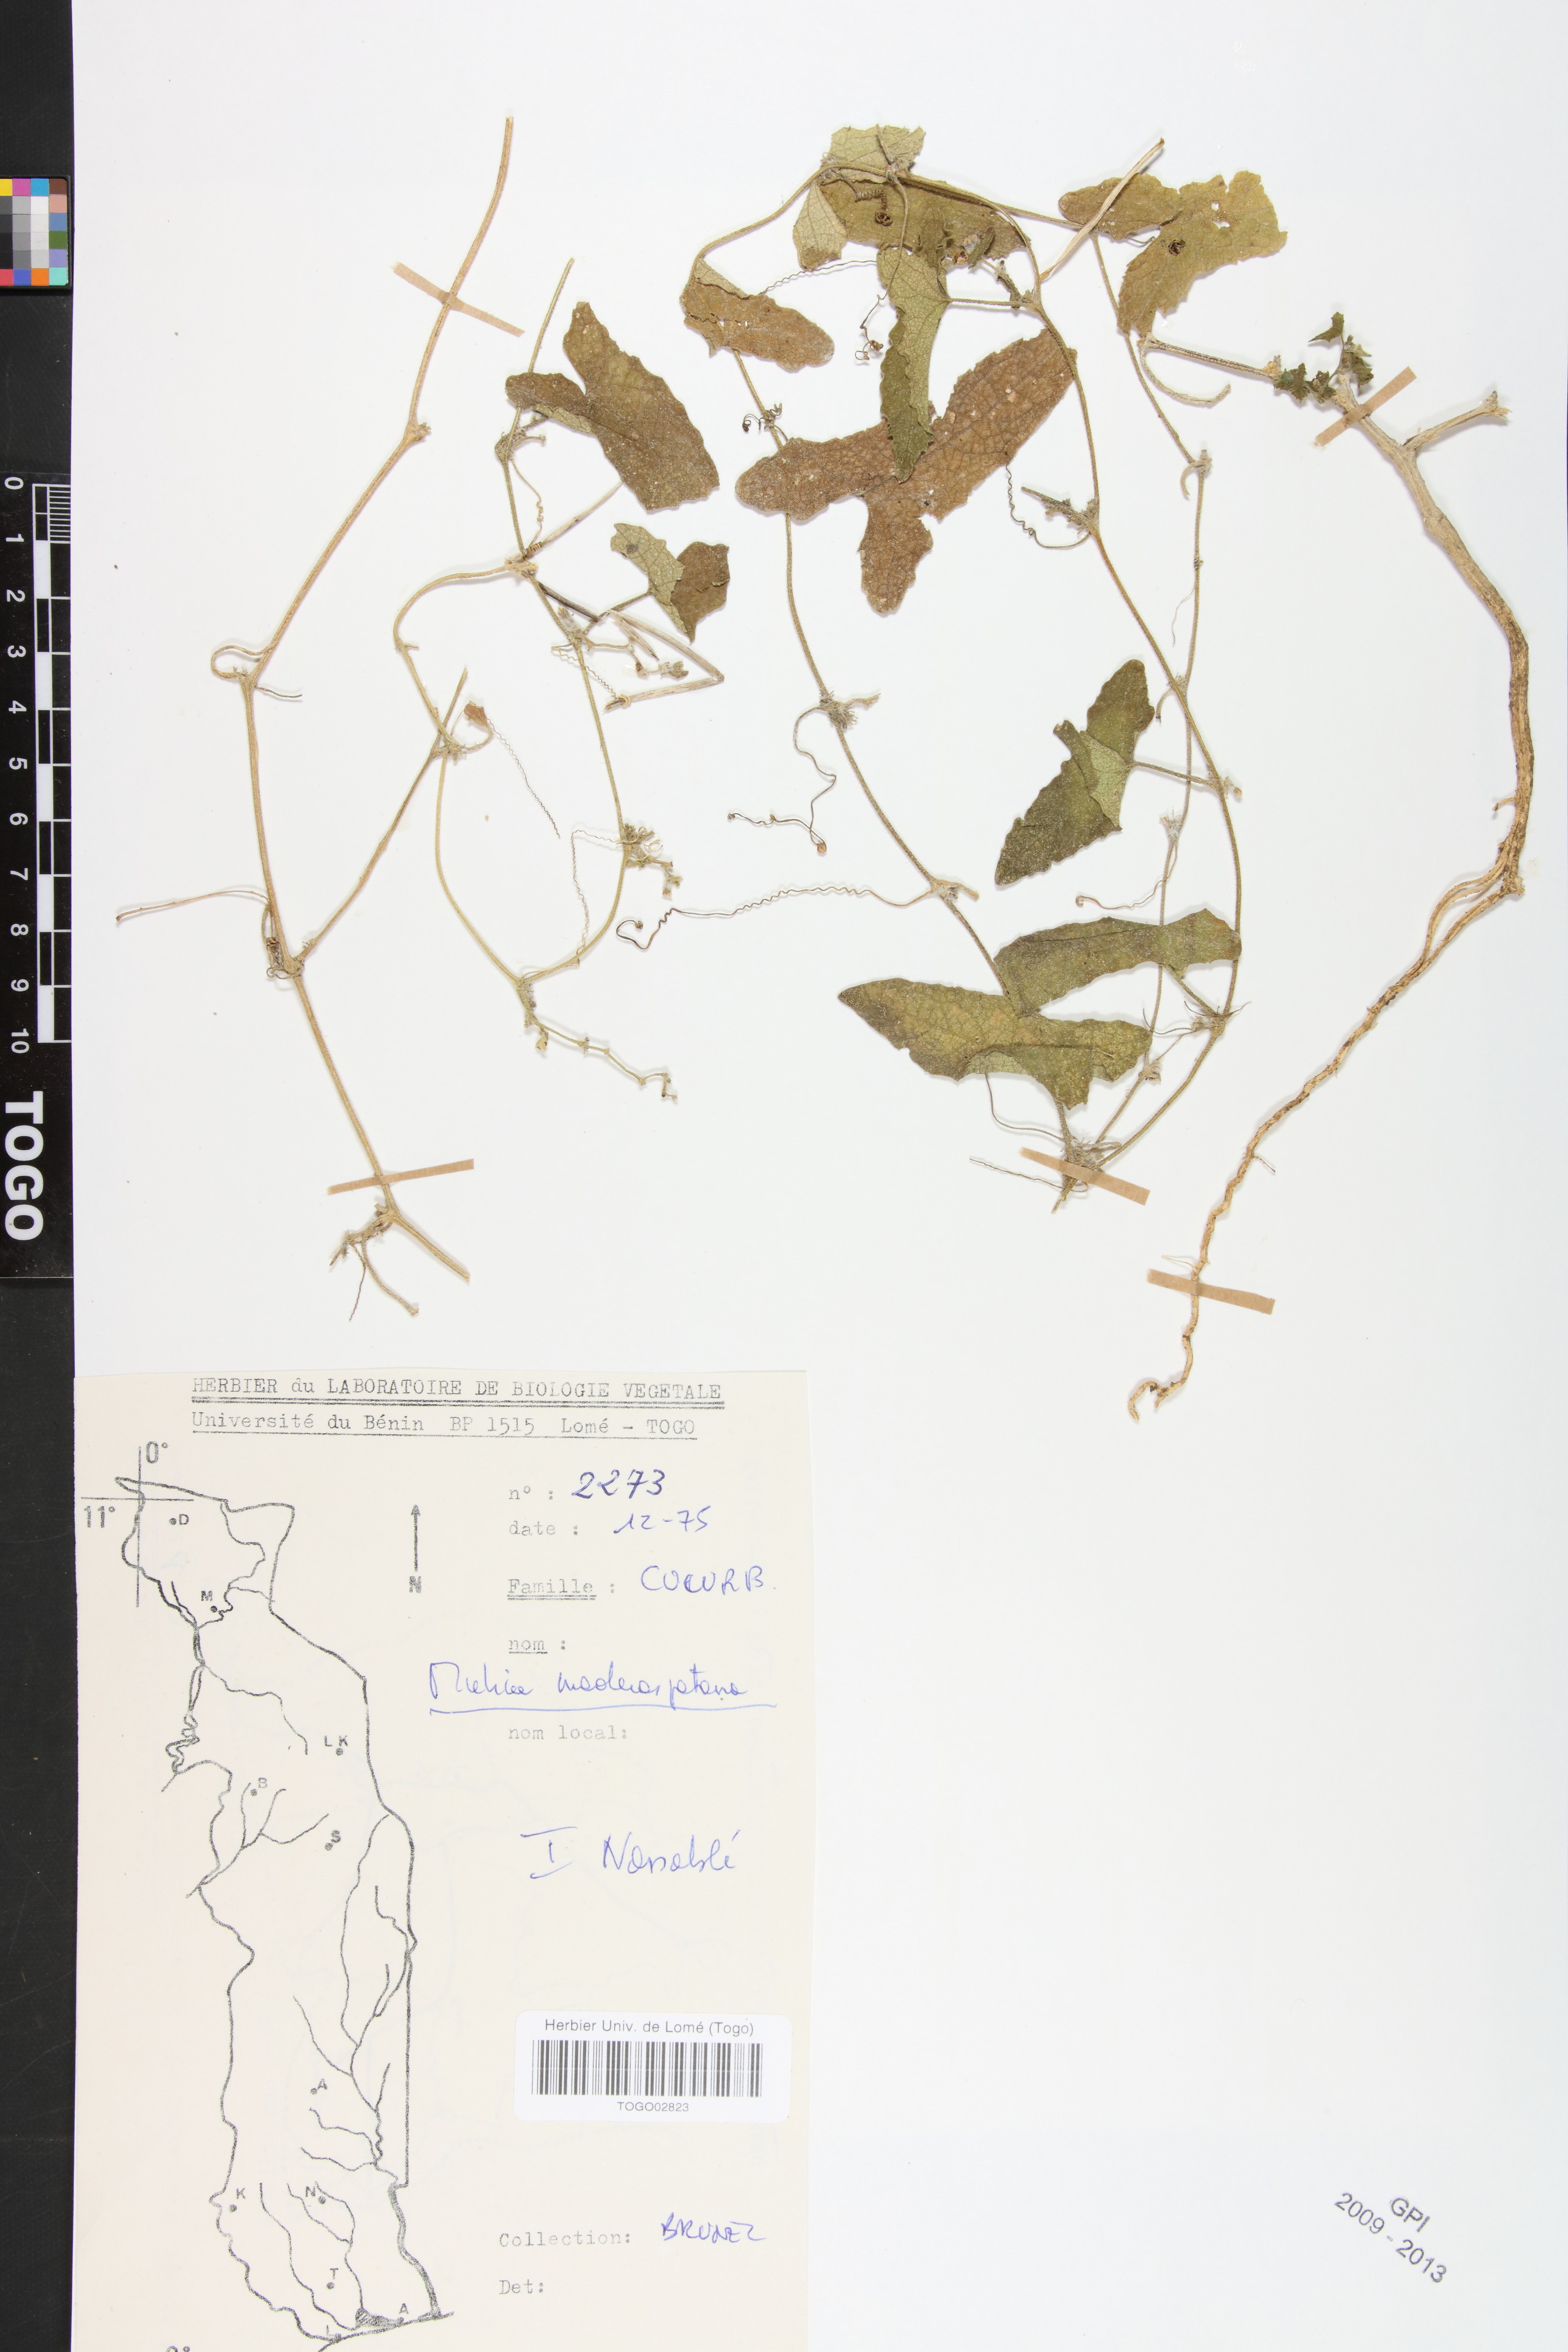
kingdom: Plantae
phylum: Tracheophyta
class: Magnoliopsida
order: Cucurbitales
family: Cucurbitaceae
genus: Cucumis
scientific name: Cucumis maderaspatanus
